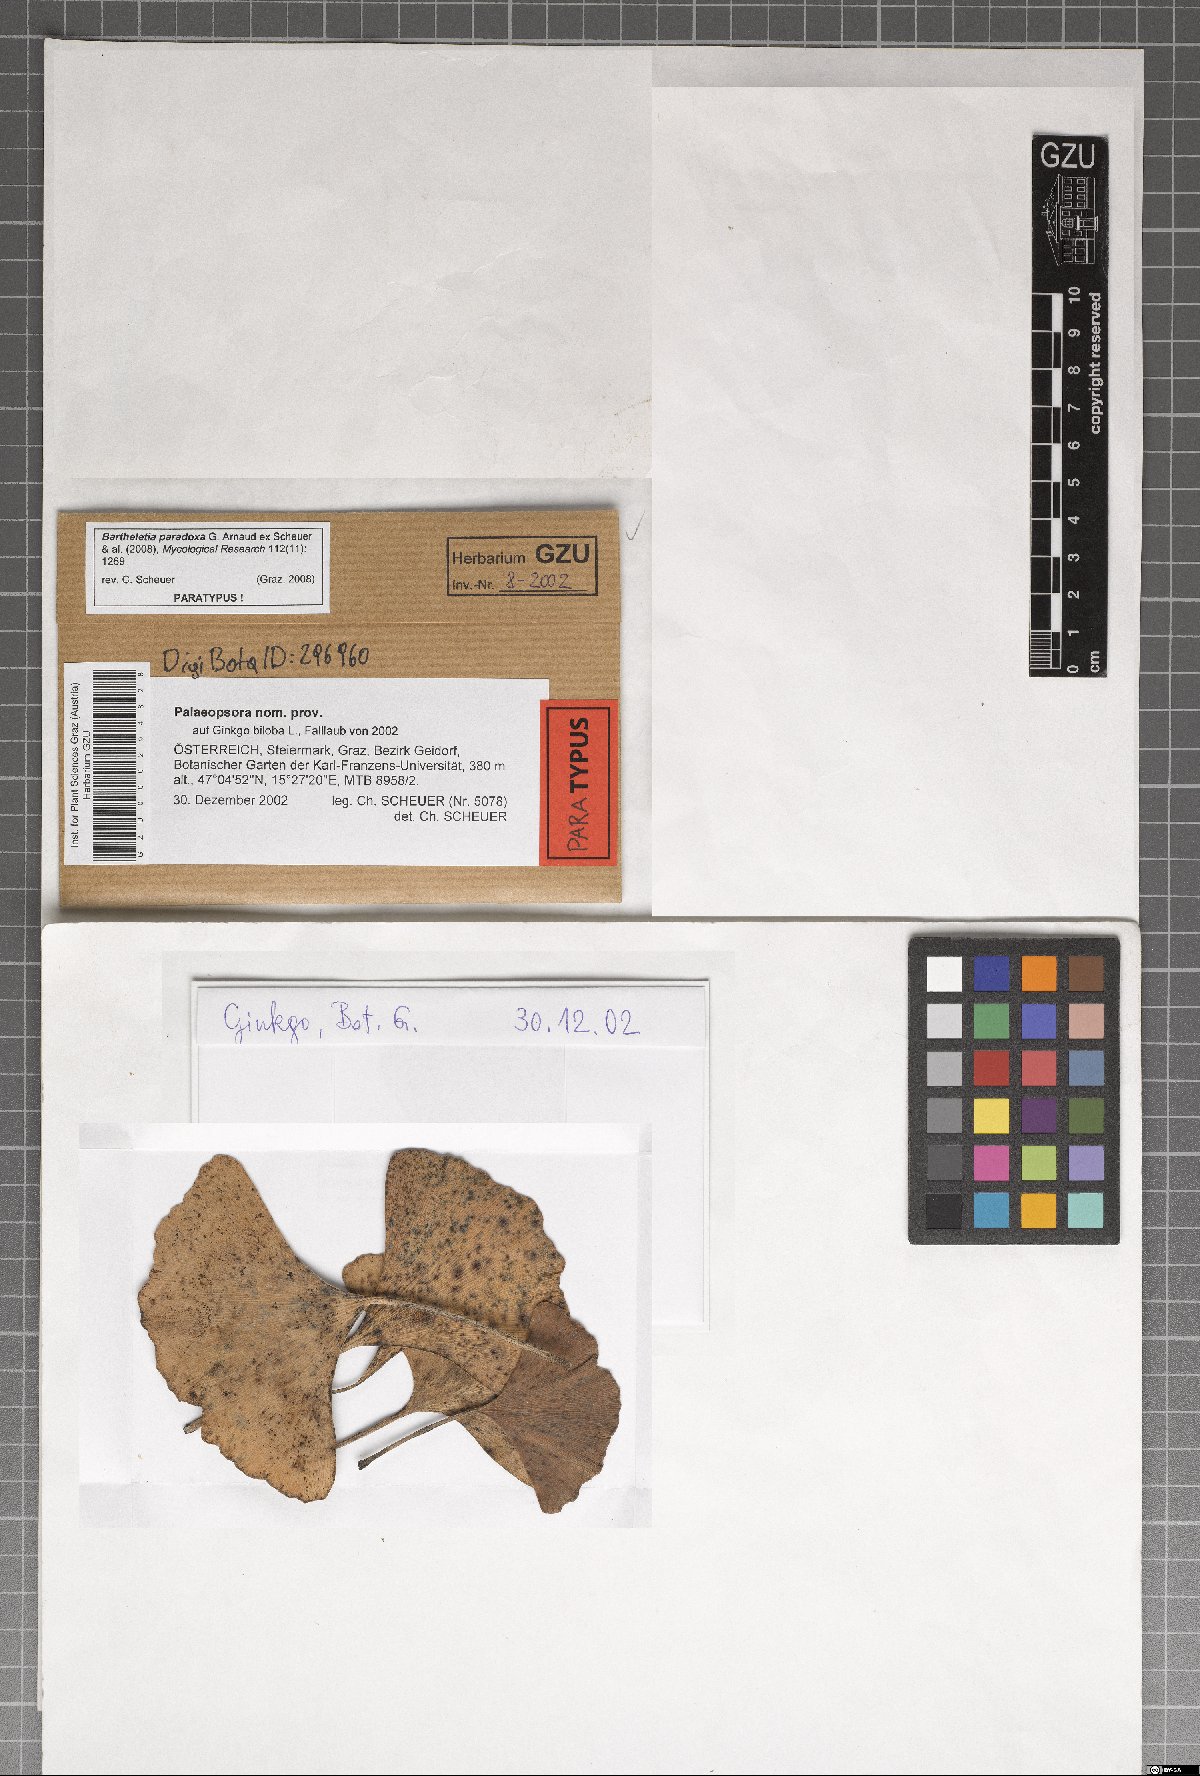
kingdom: Fungi
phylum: Basidiomycota
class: Wallemiomycetes
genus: Bartheletia
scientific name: Bartheletia paradoxa
